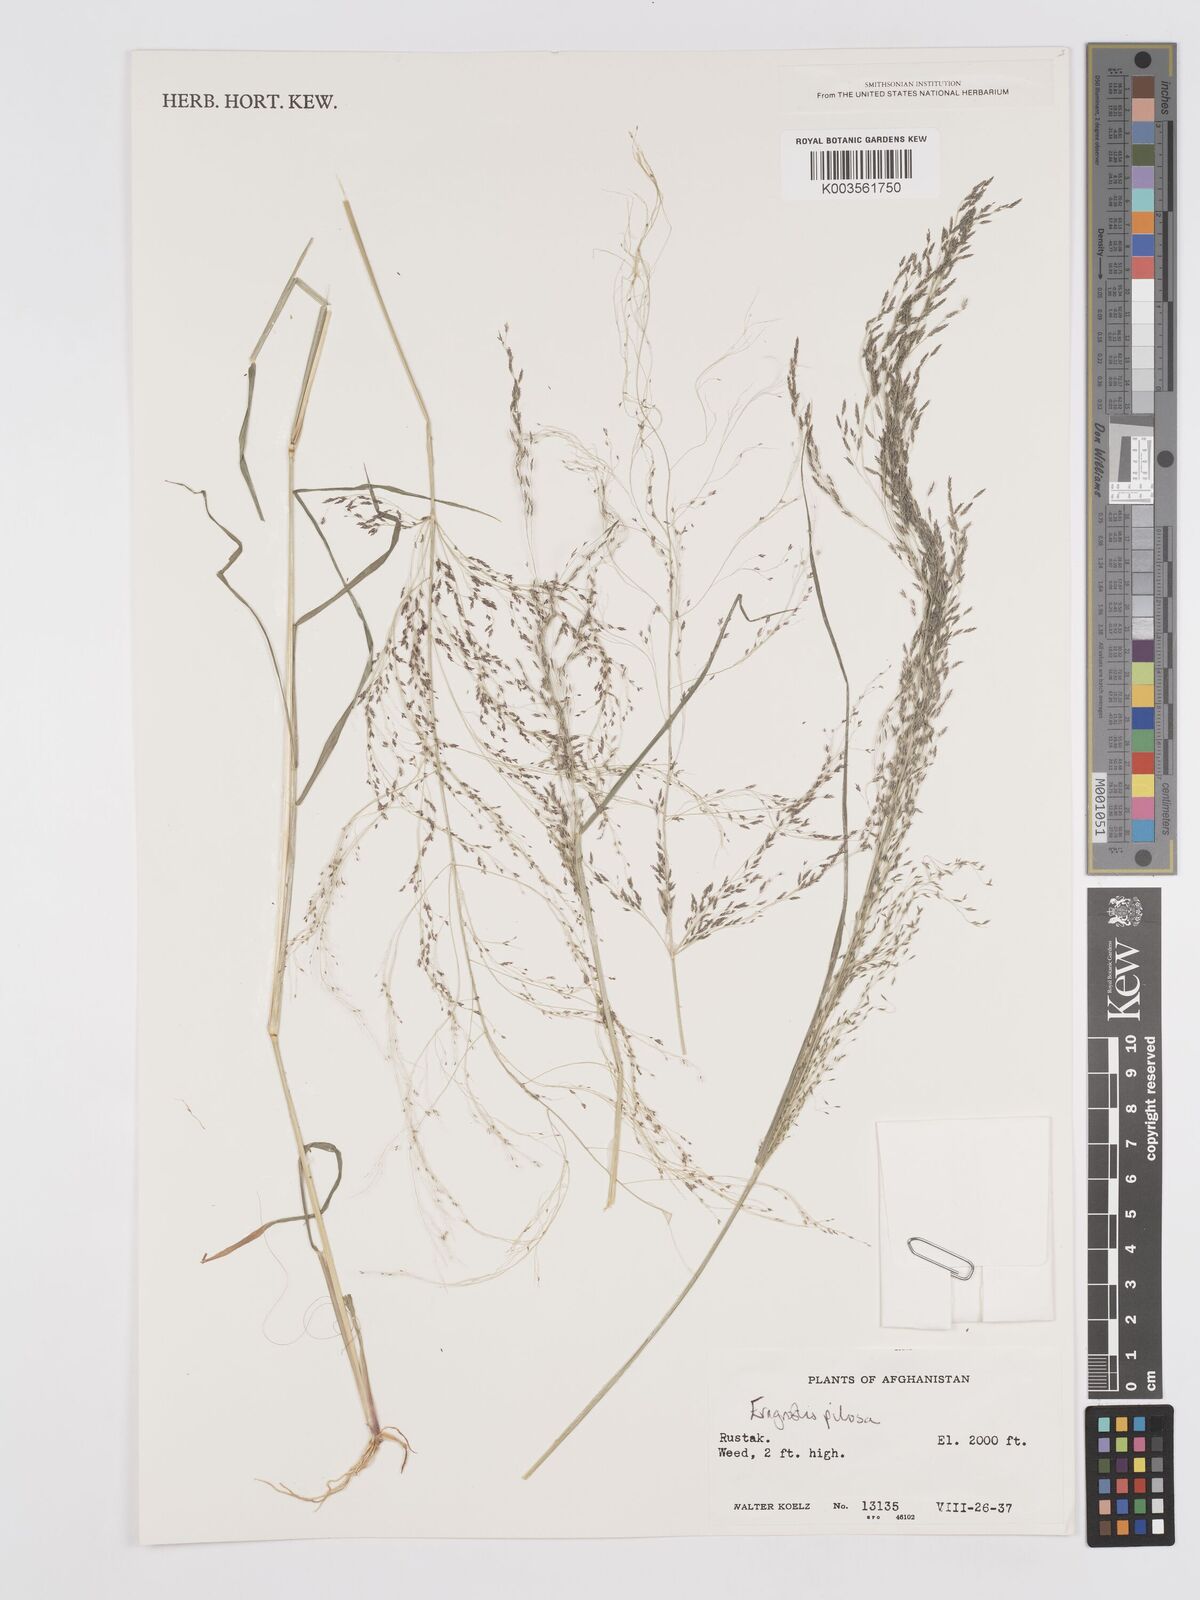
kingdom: Plantae
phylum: Tracheophyta
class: Liliopsida
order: Poales
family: Poaceae
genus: Eragrostis
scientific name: Eragrostis pilosa
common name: Indian lovegrass
